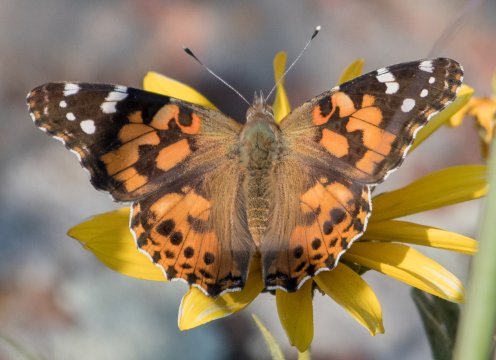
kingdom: Animalia
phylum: Arthropoda
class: Insecta
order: Lepidoptera
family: Nymphalidae
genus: Vanessa
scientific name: Vanessa cardui
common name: Painted Lady
